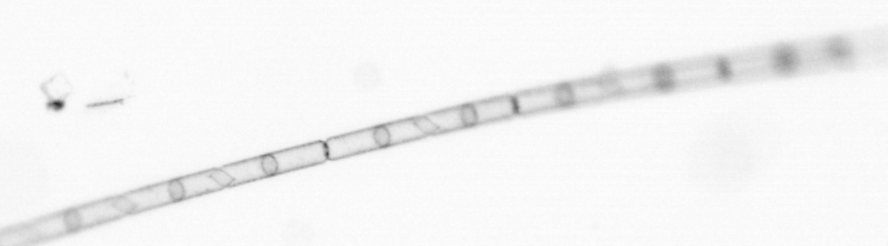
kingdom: Chromista
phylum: Ochrophyta
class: Bacillariophyceae
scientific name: Bacillariophyceae
